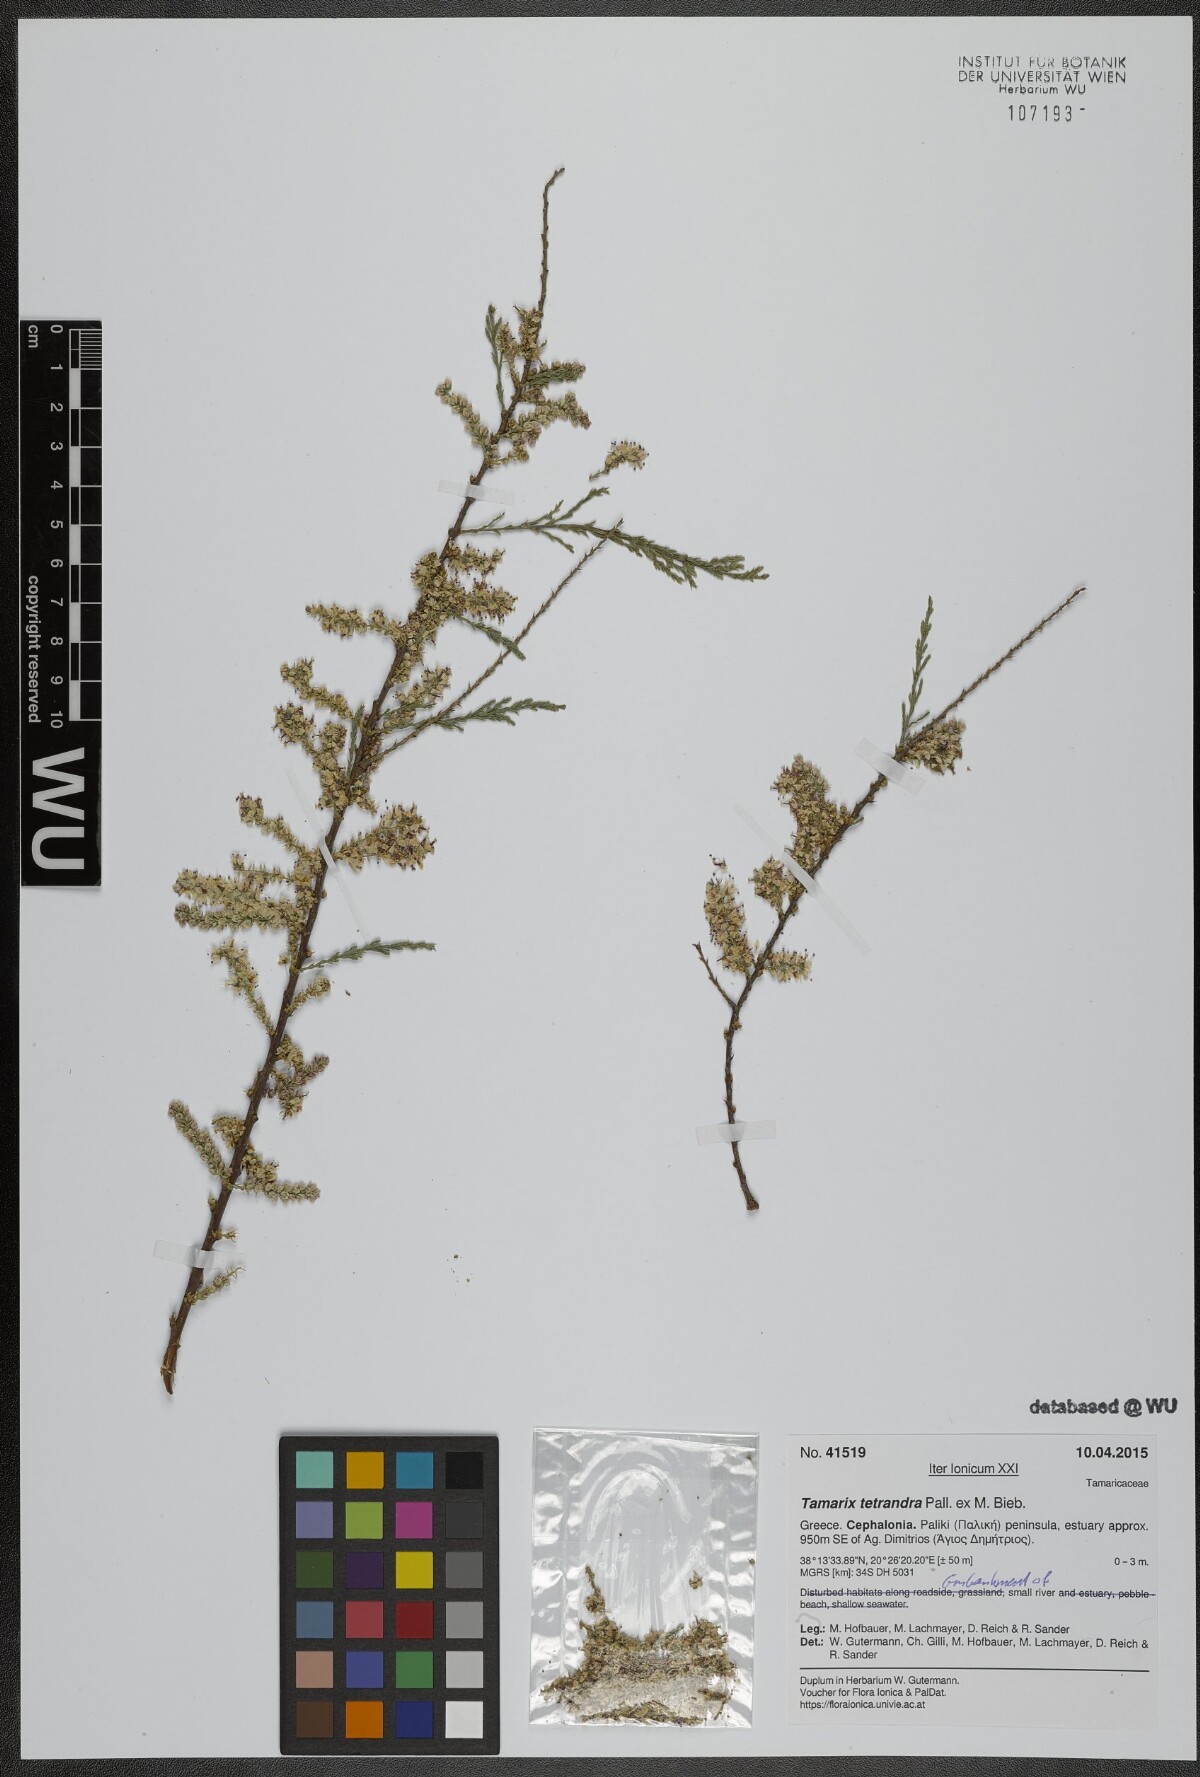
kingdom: Plantae
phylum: Tracheophyta
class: Magnoliopsida
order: Caryophyllales
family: Tamaricaceae
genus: Tamarix
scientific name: Tamarix tetrandra
